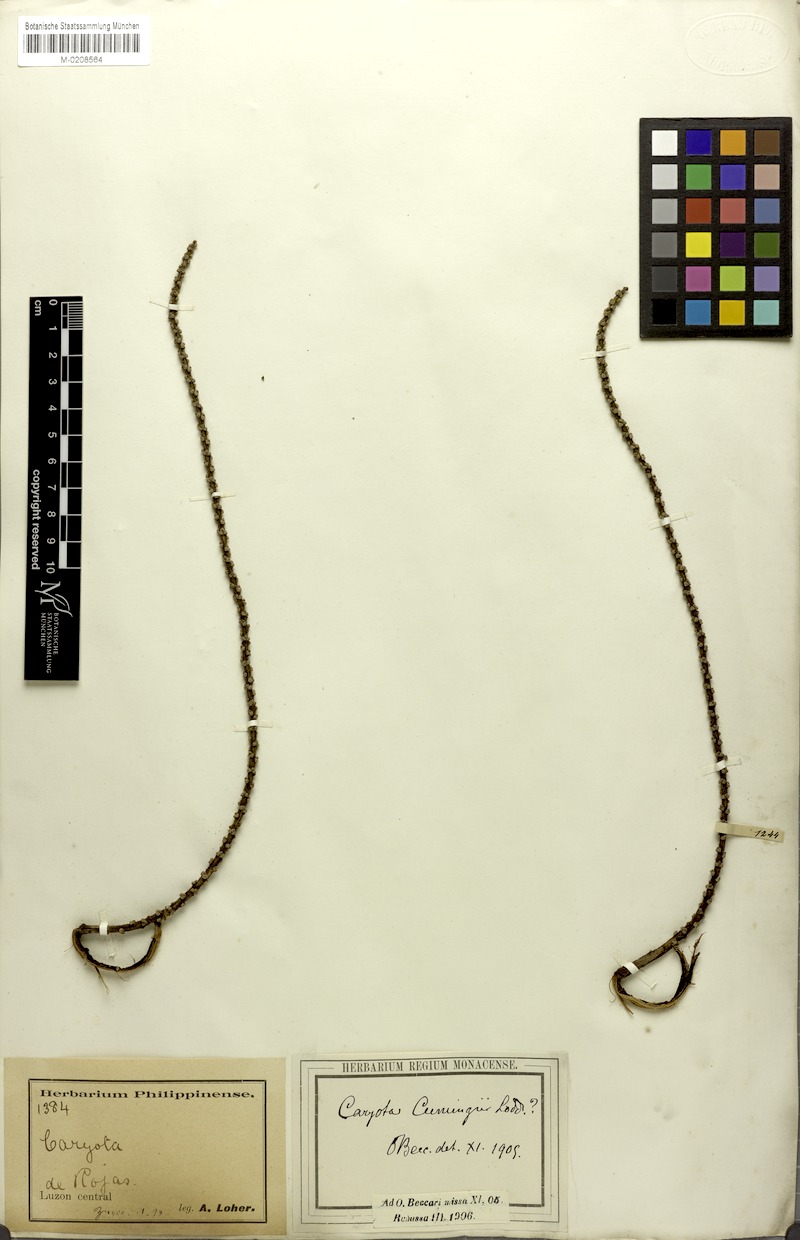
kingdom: Plantae
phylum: Tracheophyta
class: Liliopsida
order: Arecales
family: Arecaceae
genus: Caryota
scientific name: Caryota cumingii
